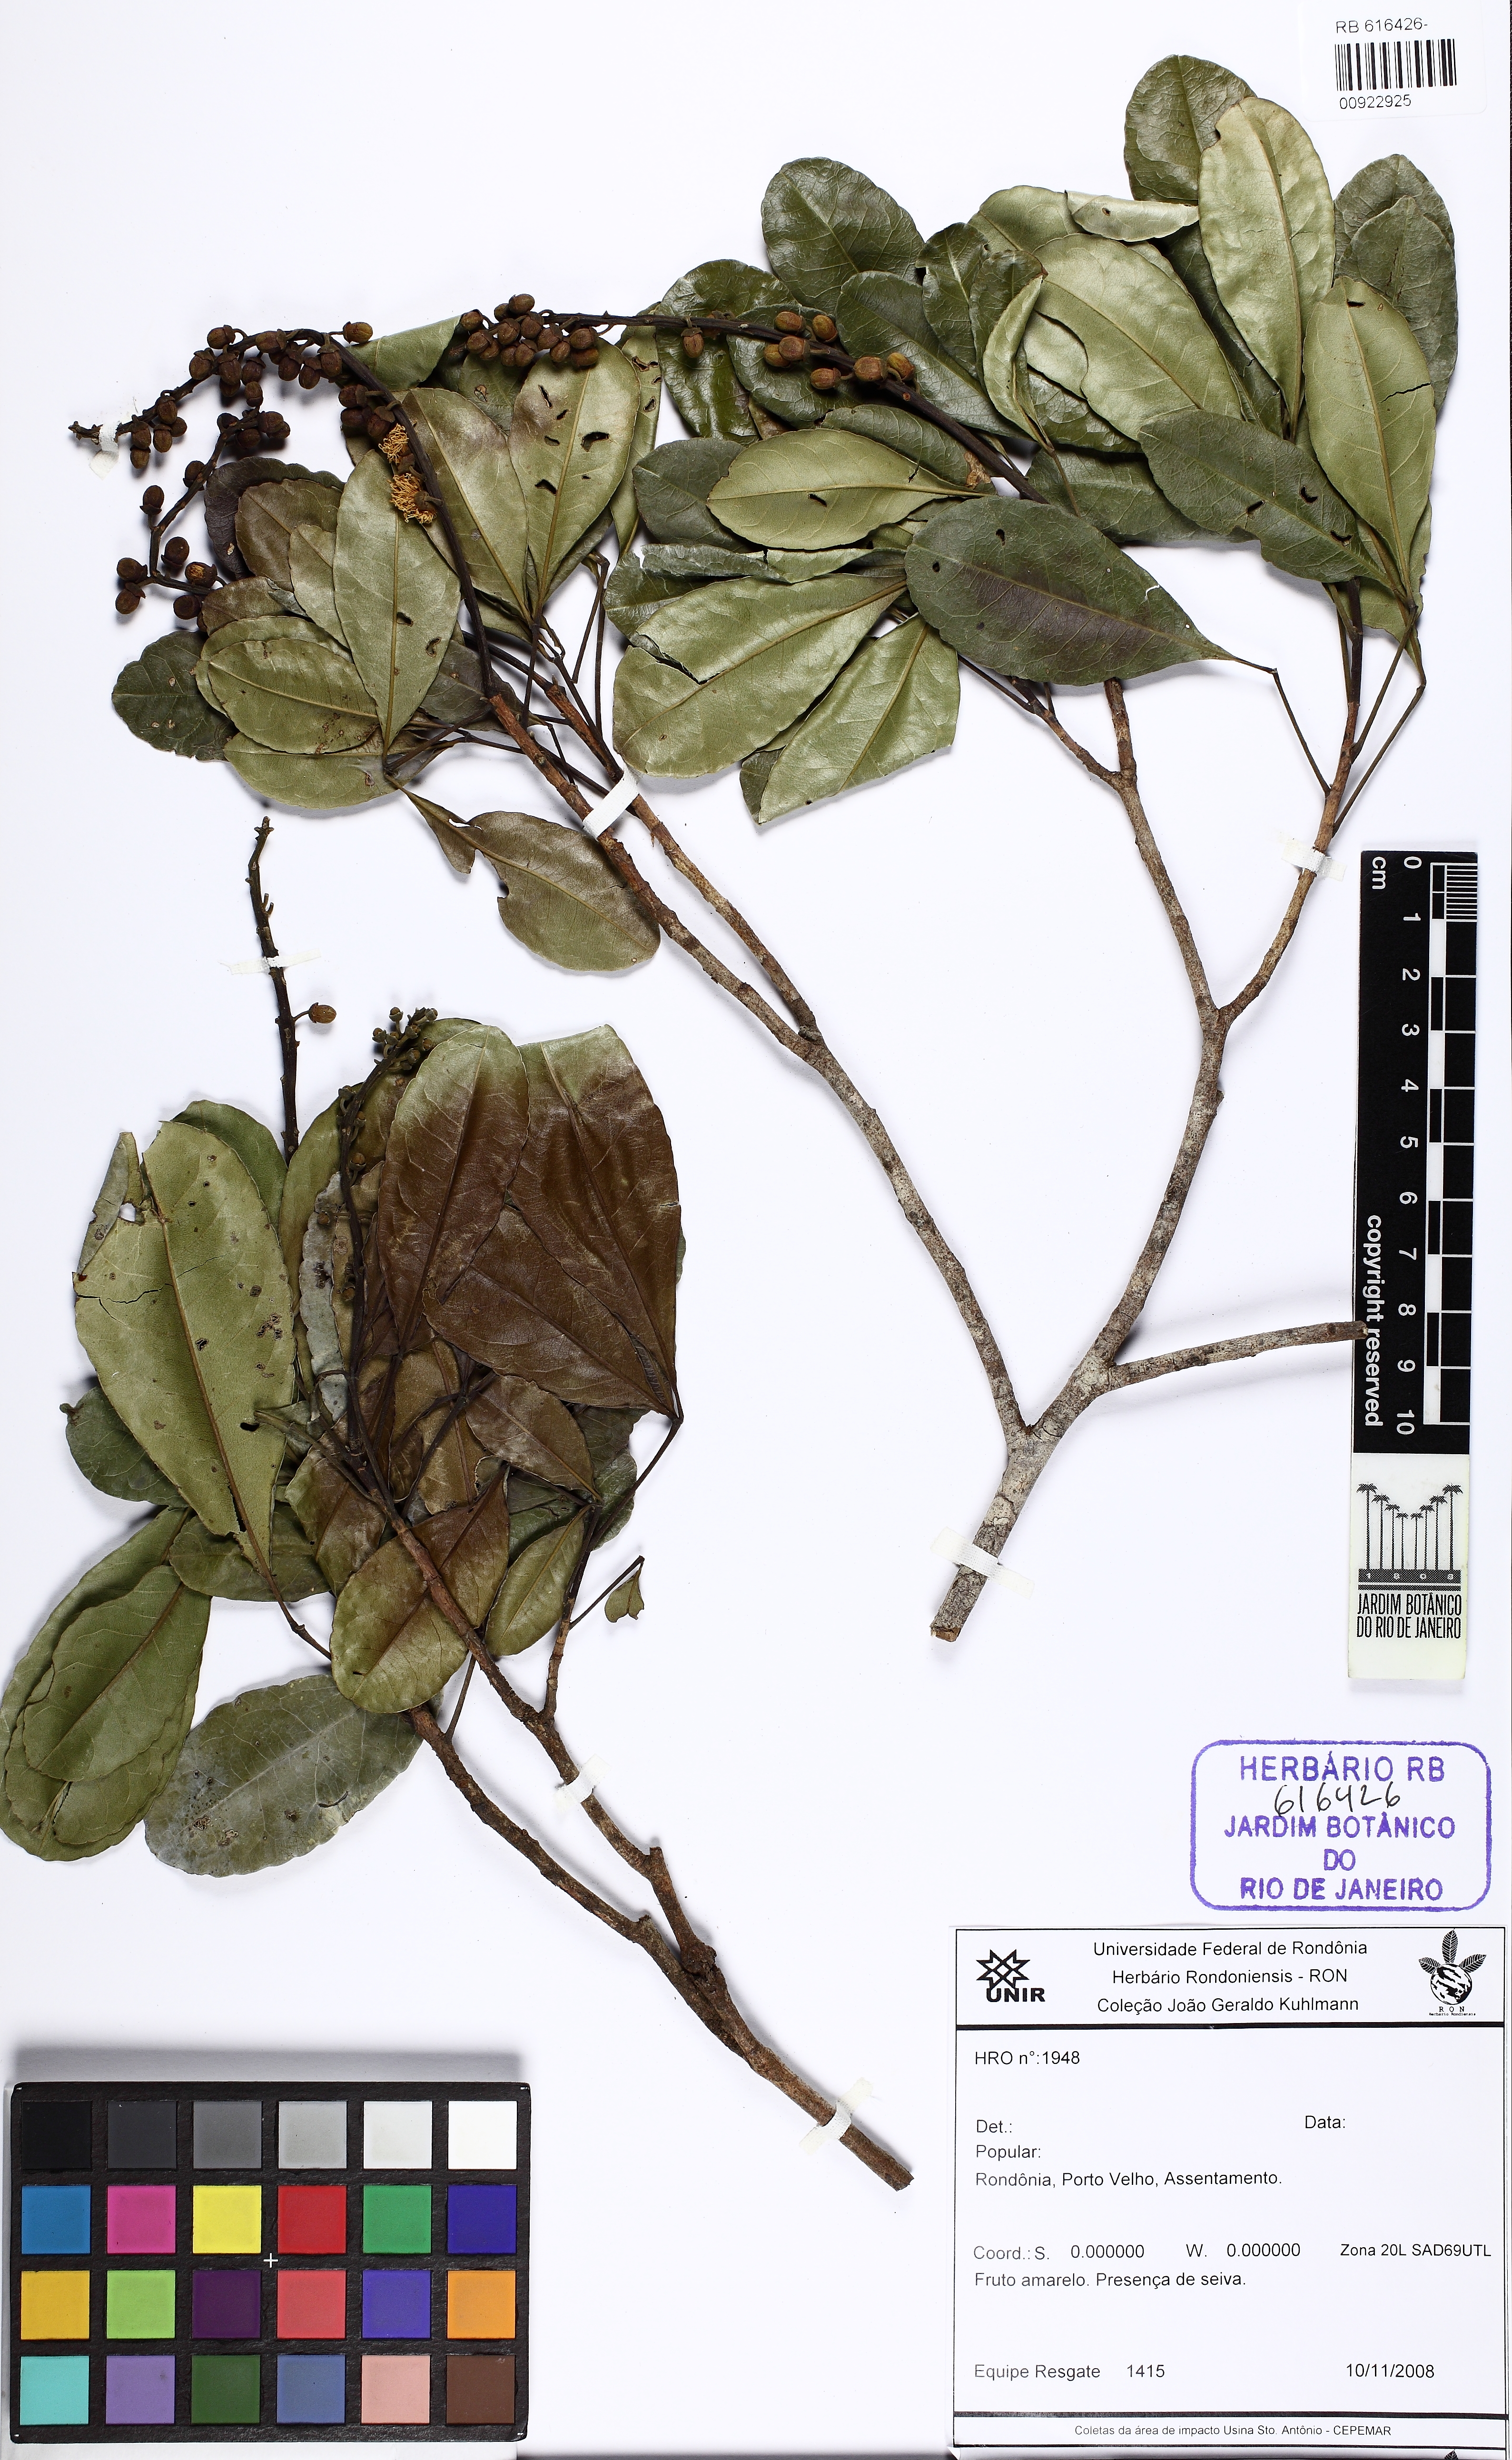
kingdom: Plantae
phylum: Tracheophyta
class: Magnoliopsida
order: Malpighiales
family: Caryocaraceae
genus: Anthodiscus
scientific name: Anthodiscus
